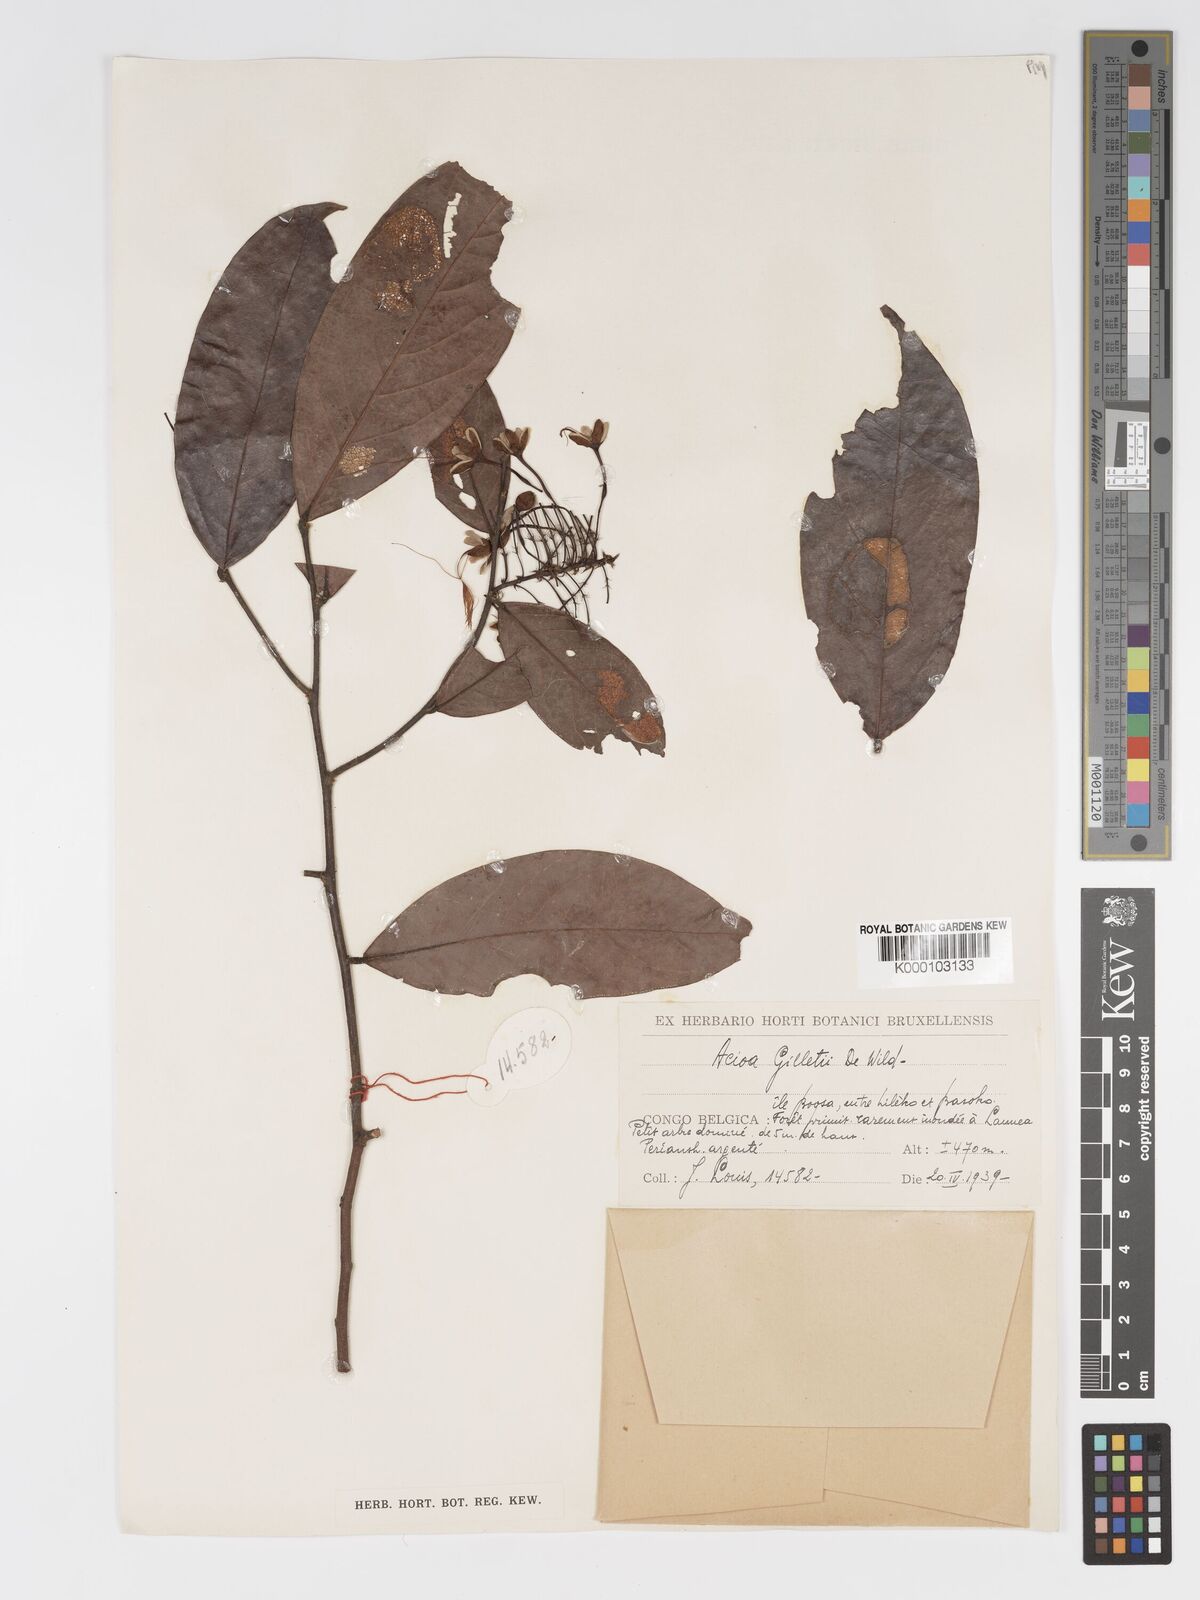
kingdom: Plantae
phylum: Tracheophyta
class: Magnoliopsida
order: Malpighiales
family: Chrysobalanaceae
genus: Dactyladenia
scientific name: Dactyladenia gilletii
